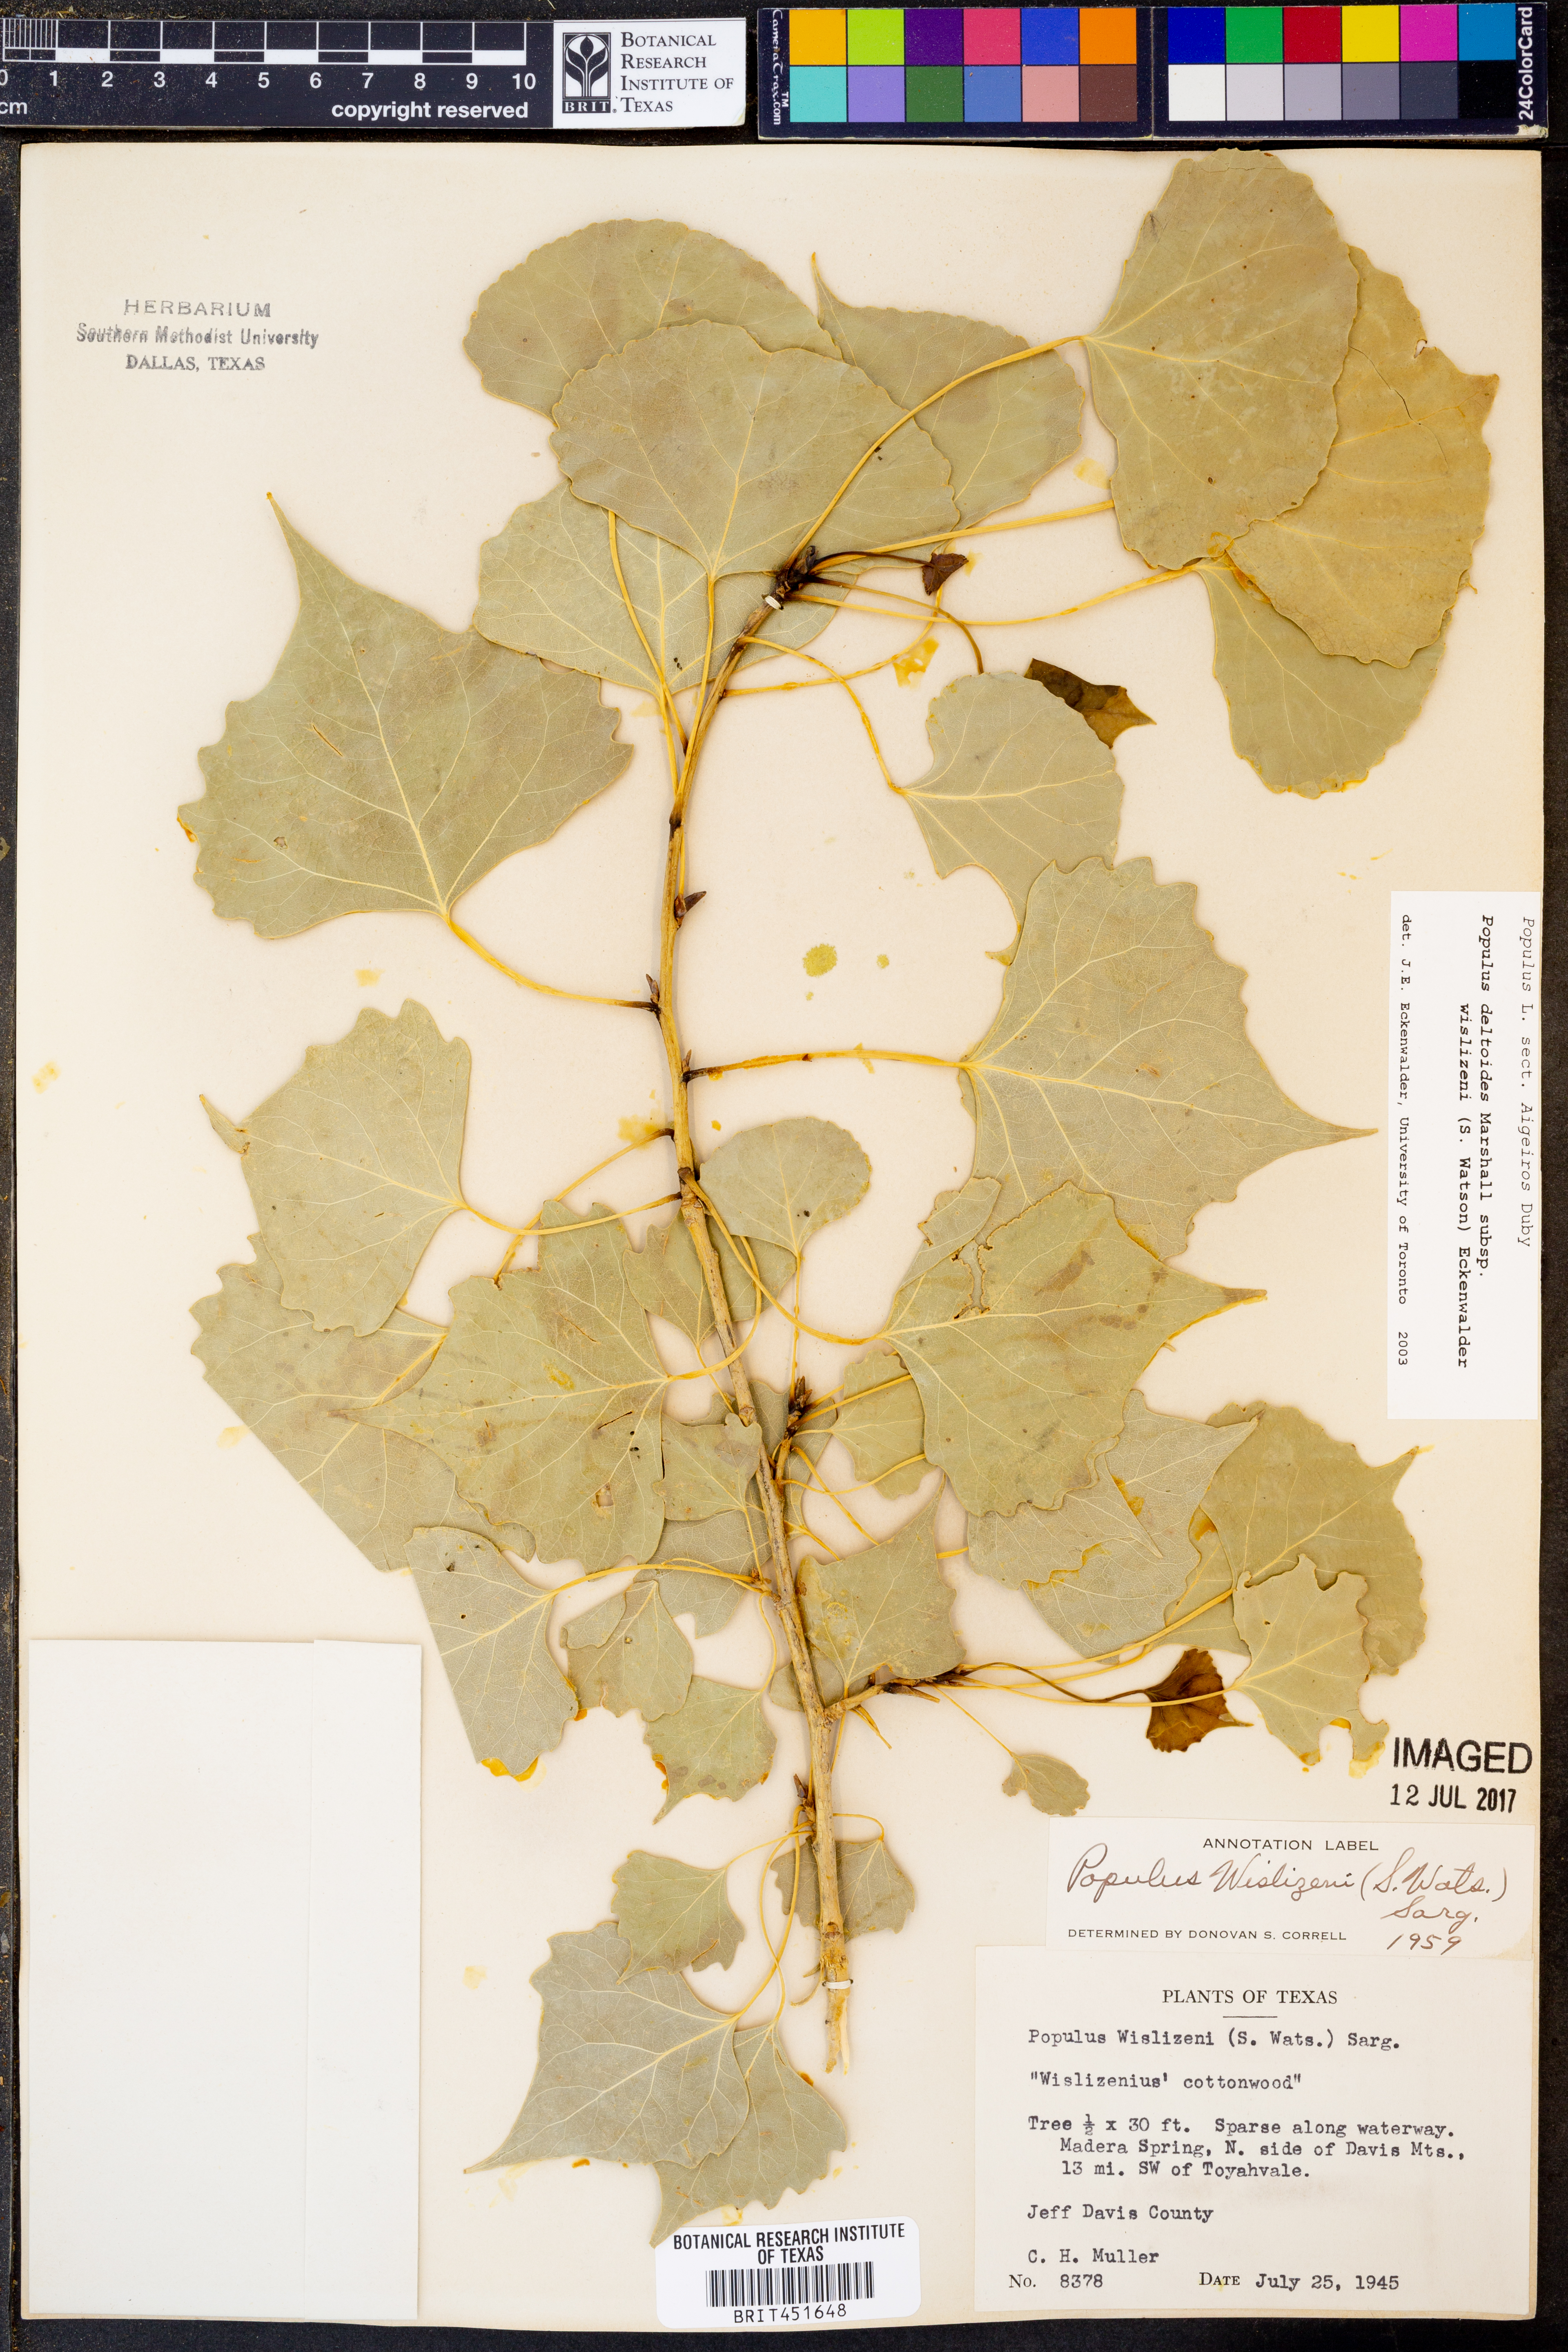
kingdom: Plantae
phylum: Tracheophyta
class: Magnoliopsida
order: Malpighiales
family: Salicaceae
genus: Populus
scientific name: Populus deltoides
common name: Eastern cottonwood
